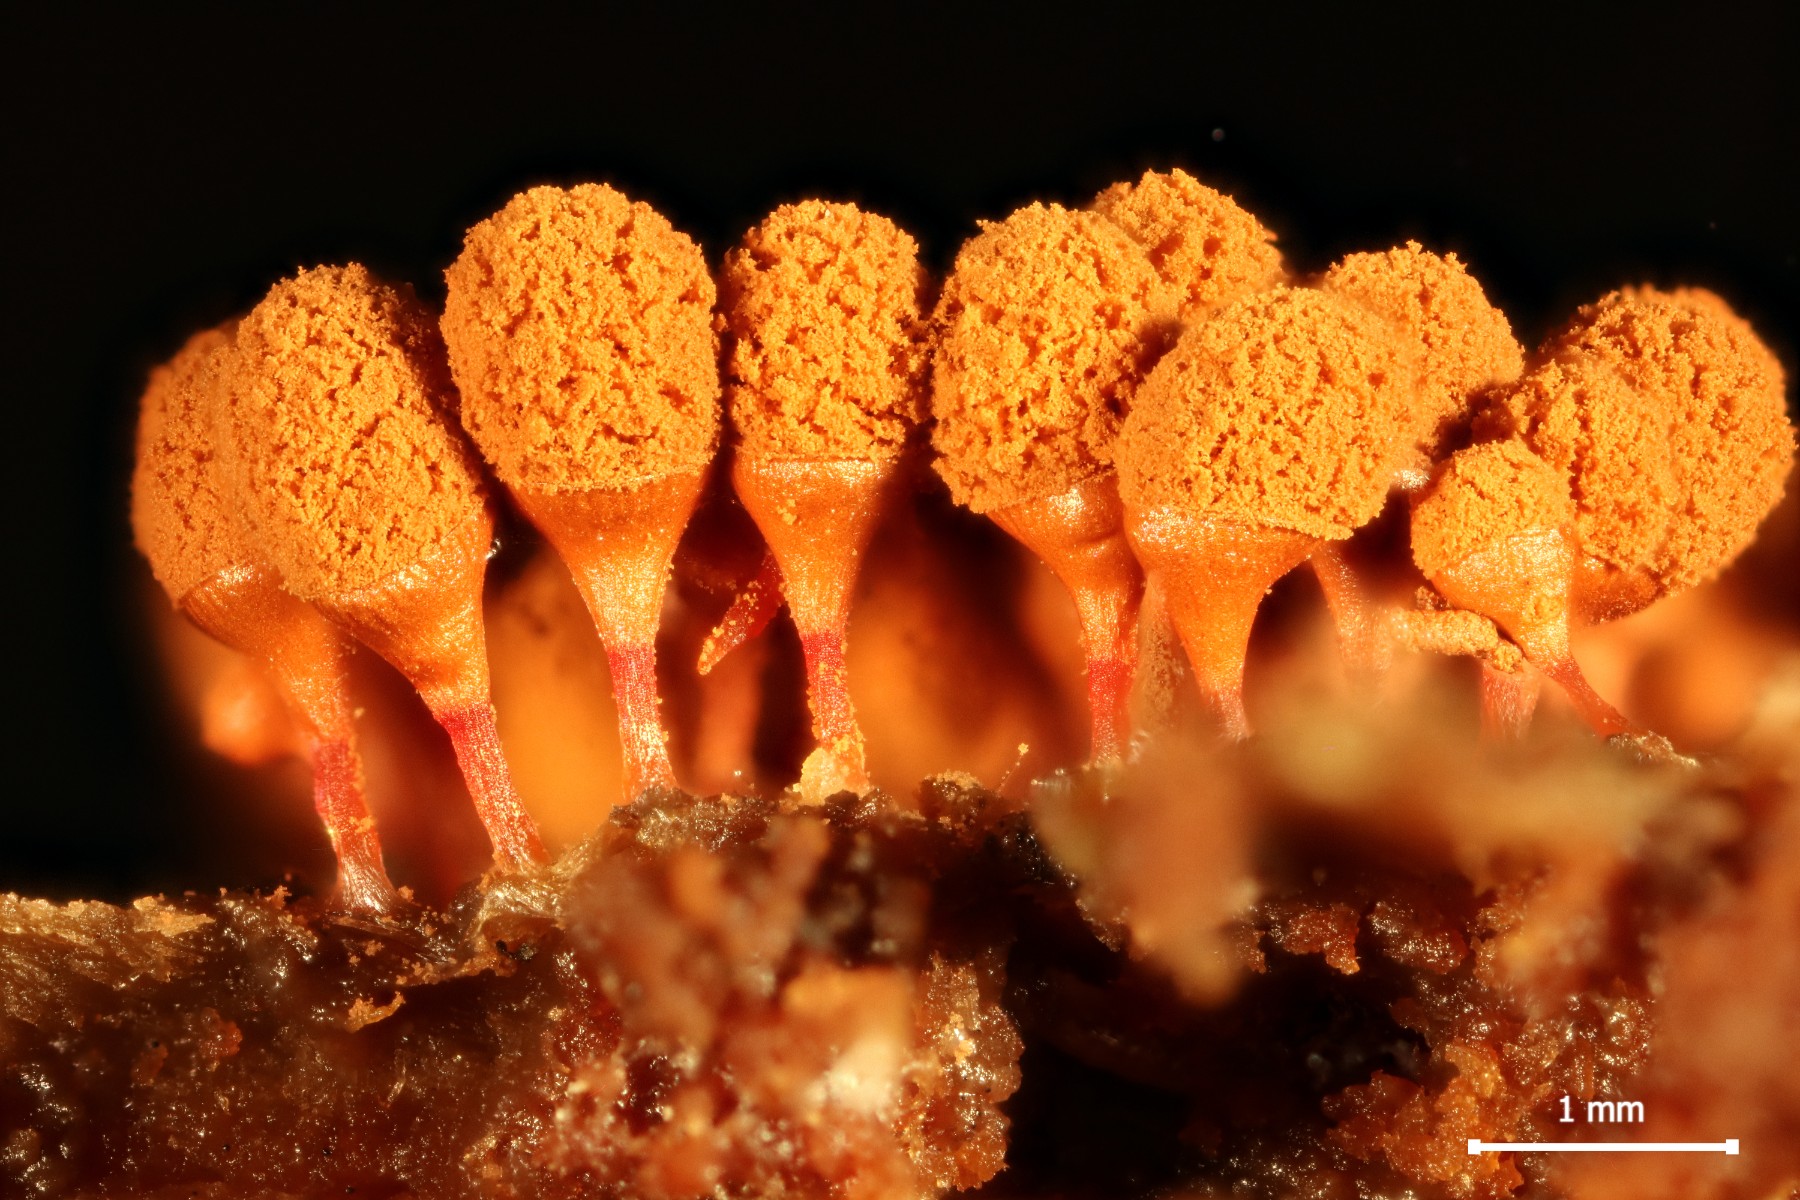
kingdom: Protozoa
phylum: Mycetozoa
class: Myxomycetes
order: Trichiales
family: Arcyriaceae
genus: Arcyria
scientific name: Arcyria ferruginea
